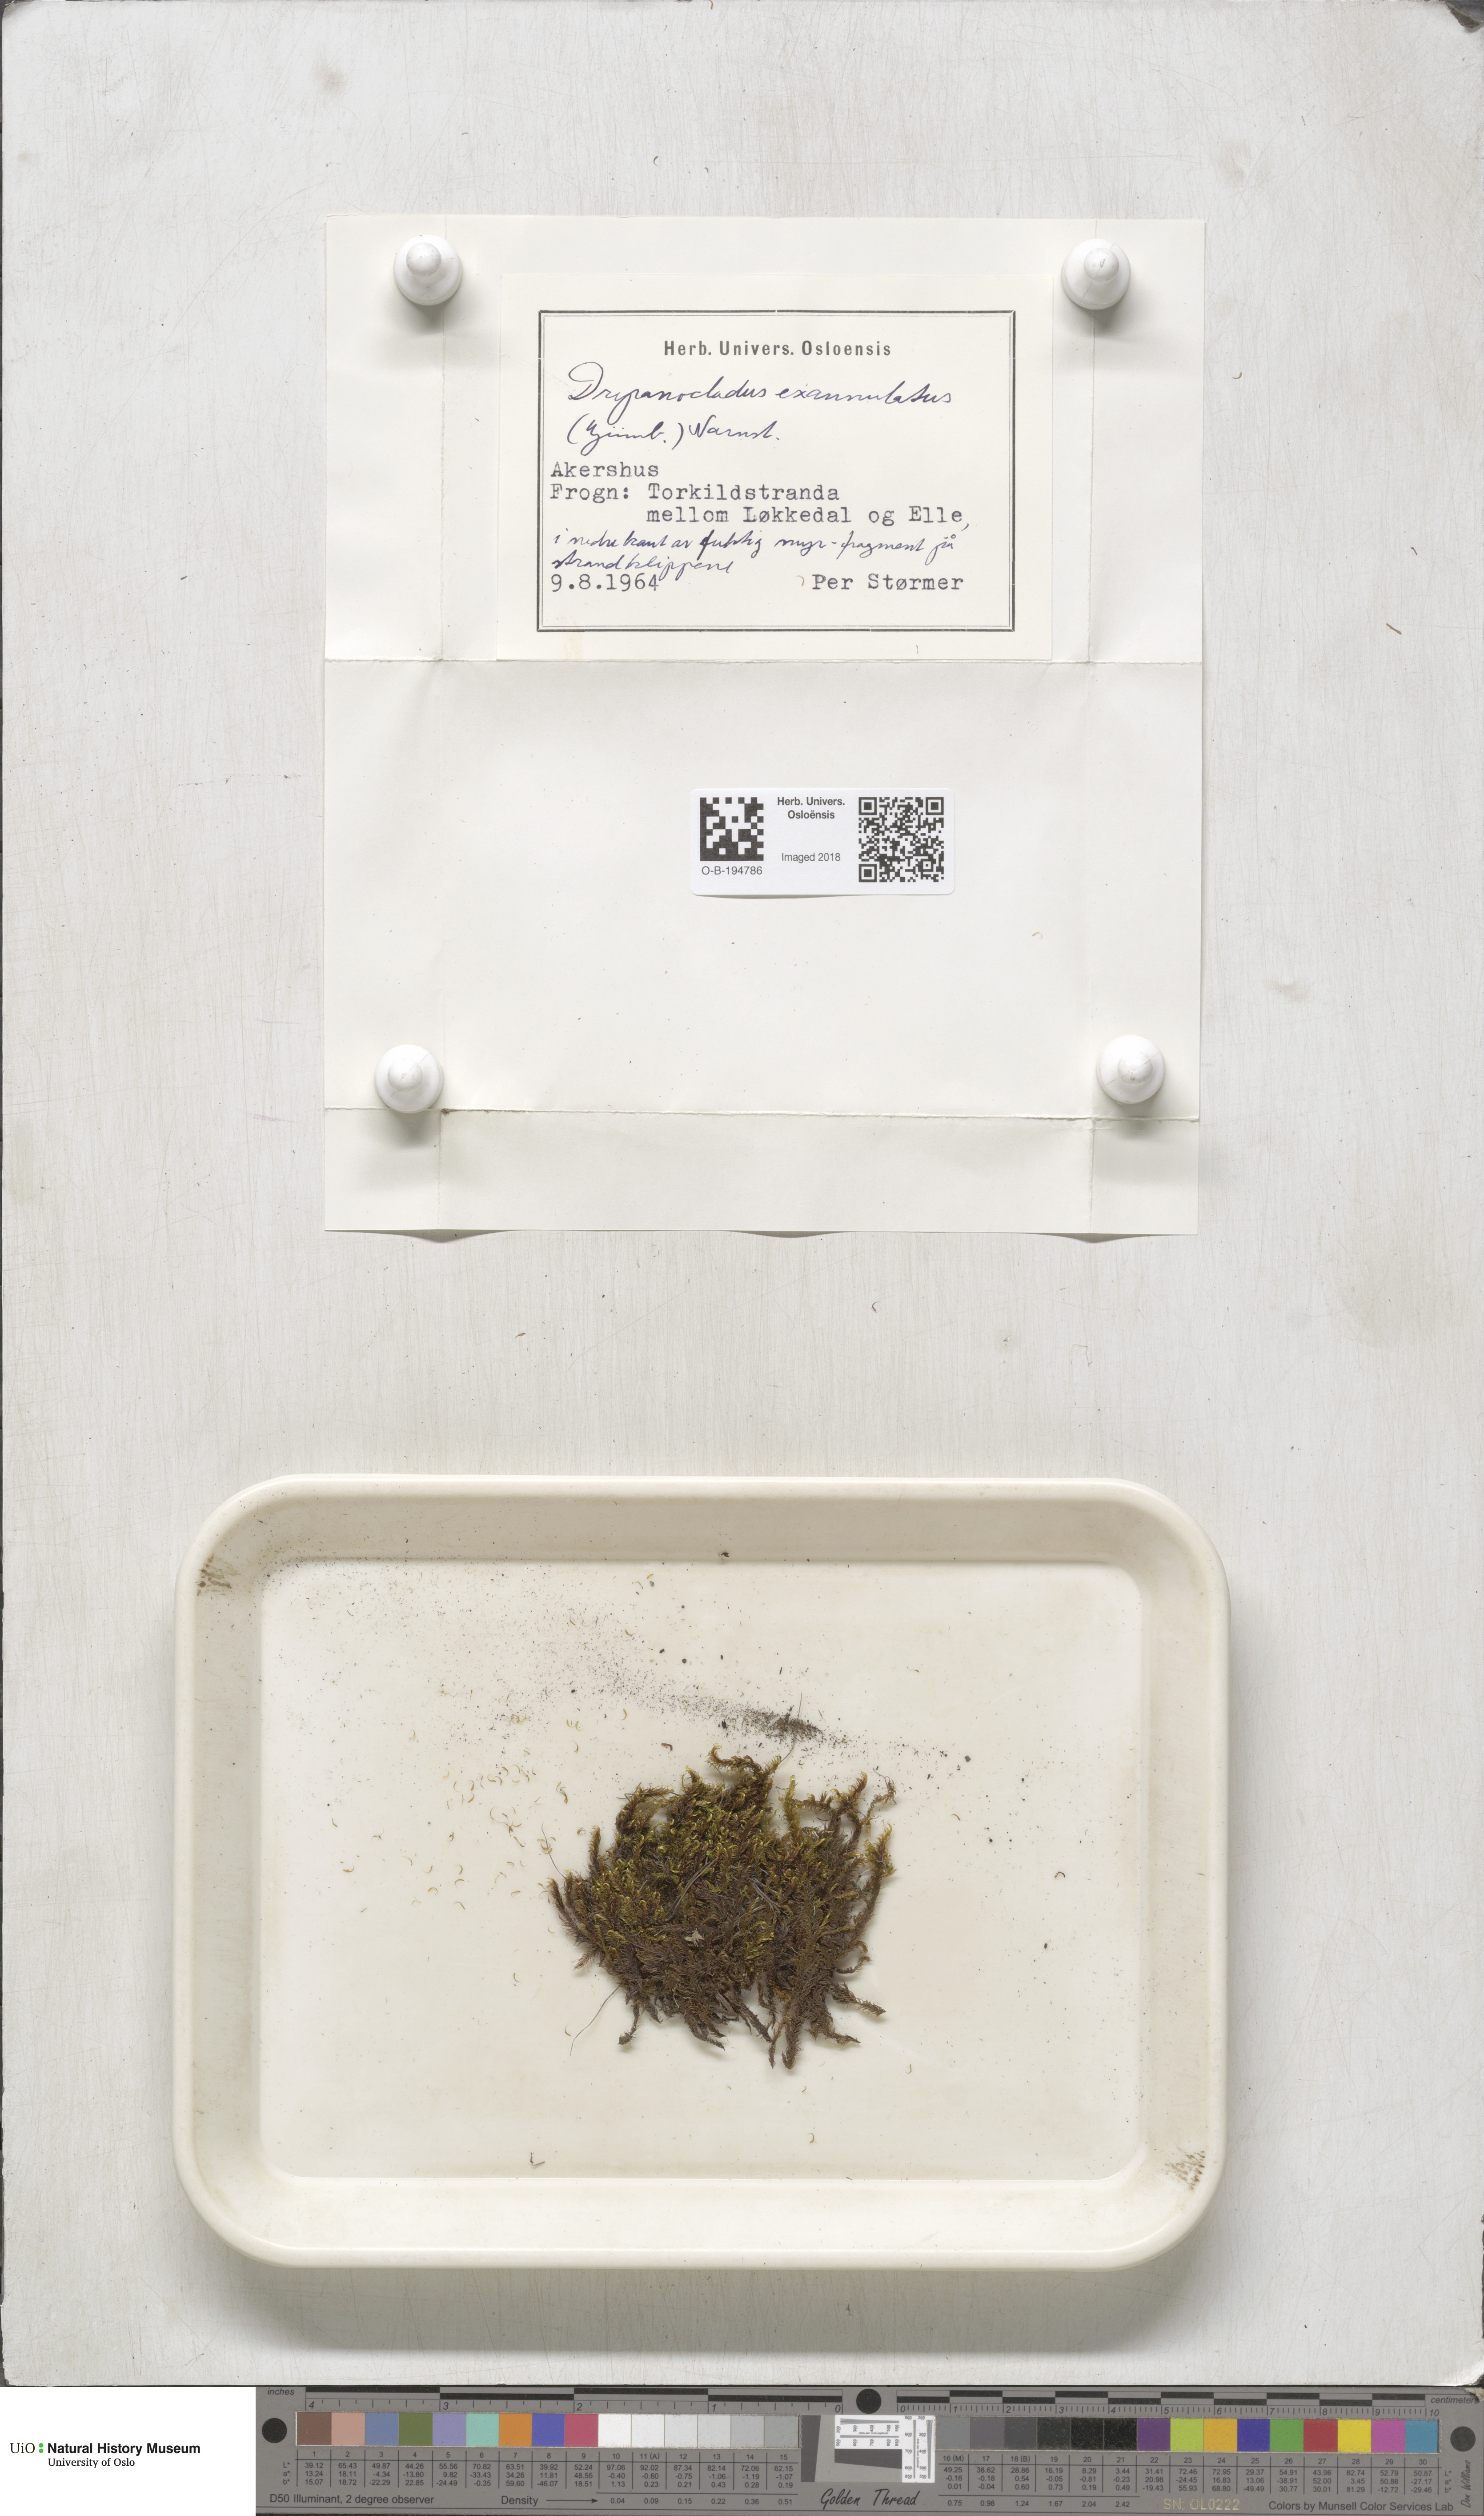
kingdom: Plantae
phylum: Bryophyta
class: Bryopsida
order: Hypnales
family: Calliergonaceae
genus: Sarmentypnum
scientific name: Sarmentypnum exannulatum
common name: Ringless spoon moss
